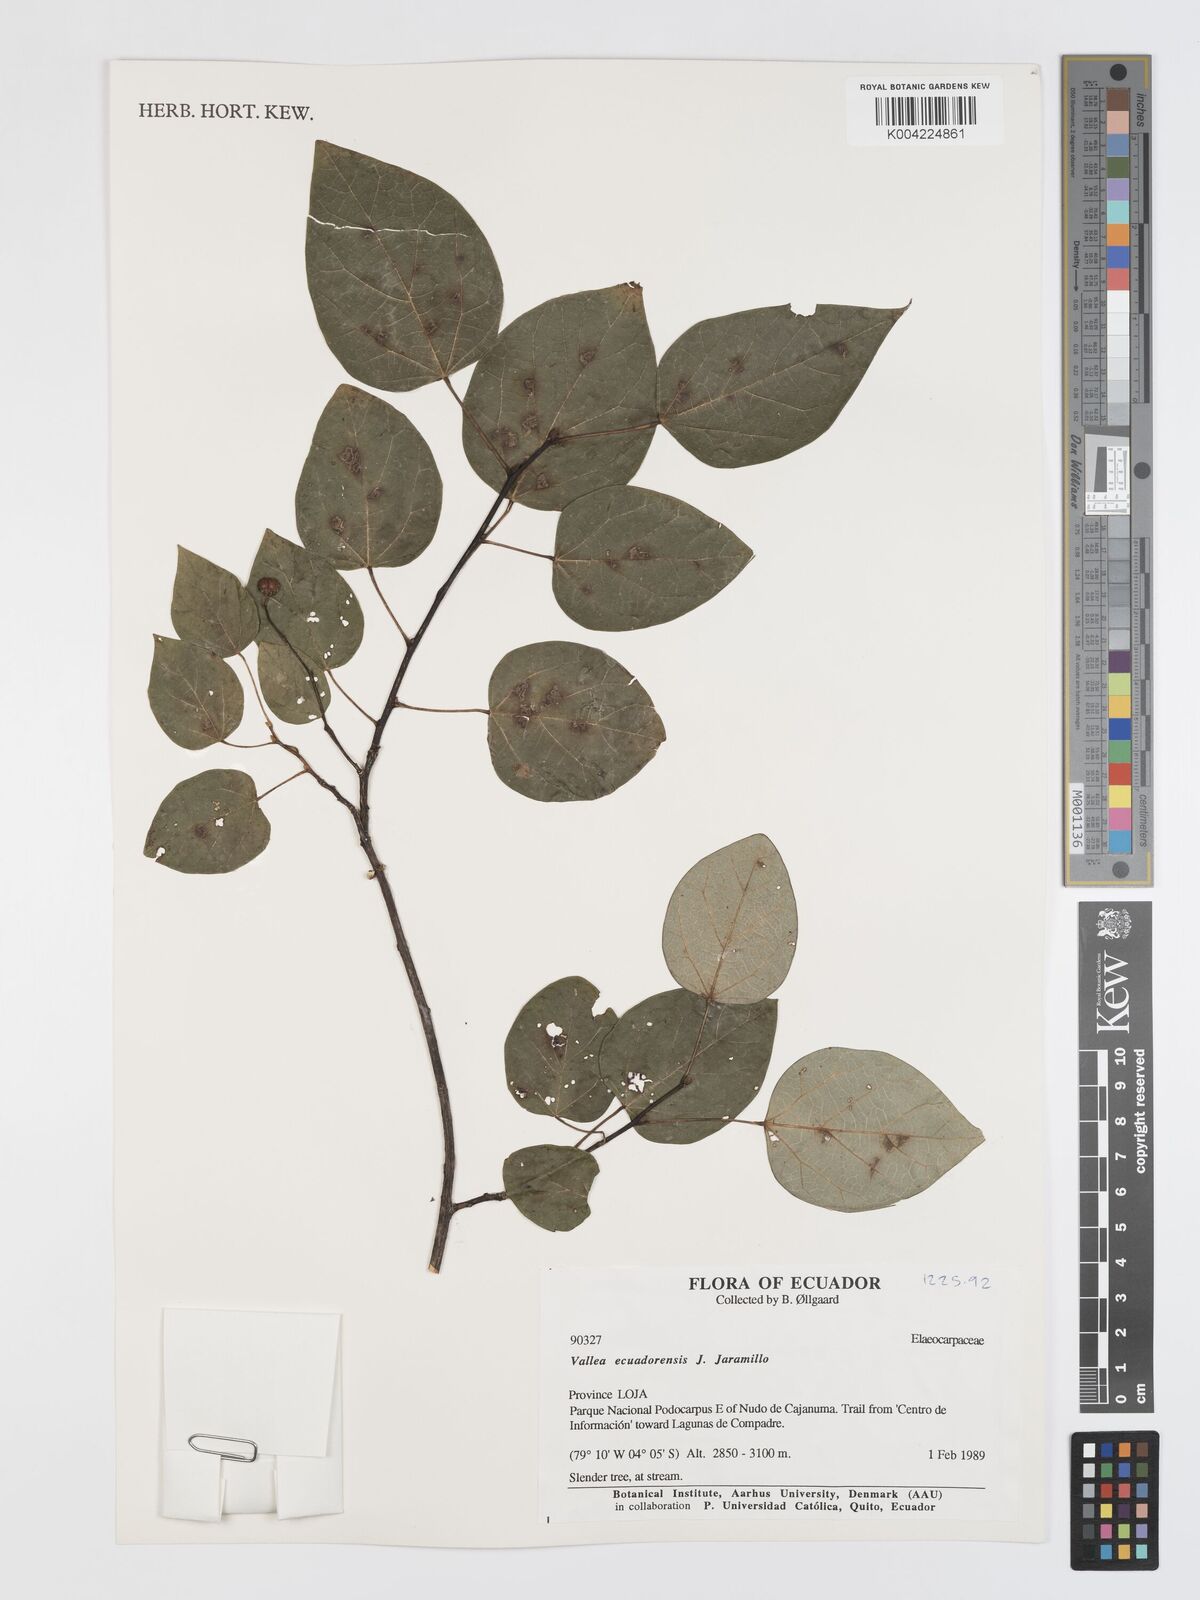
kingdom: Plantae
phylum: Tracheophyta
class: Magnoliopsida
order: Oxalidales
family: Elaeocarpaceae
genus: Vallea
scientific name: Vallea ecuadorensis
